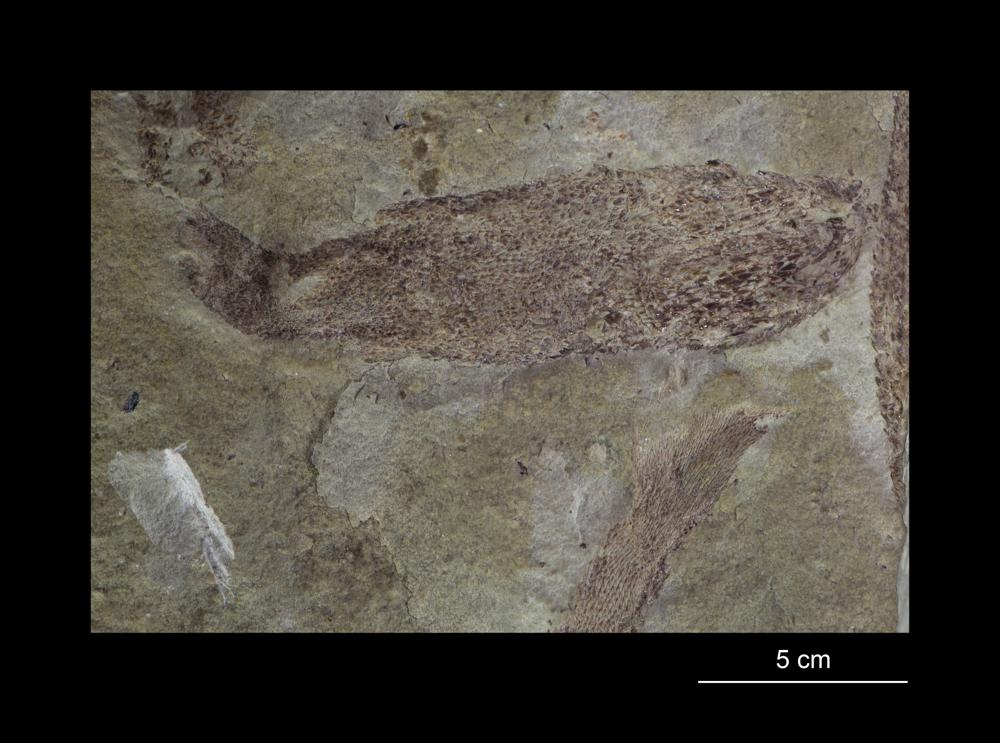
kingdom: Animalia
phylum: Chordata
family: Phlebolepididae
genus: Phlebolepis
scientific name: Phlebolepis elegans
